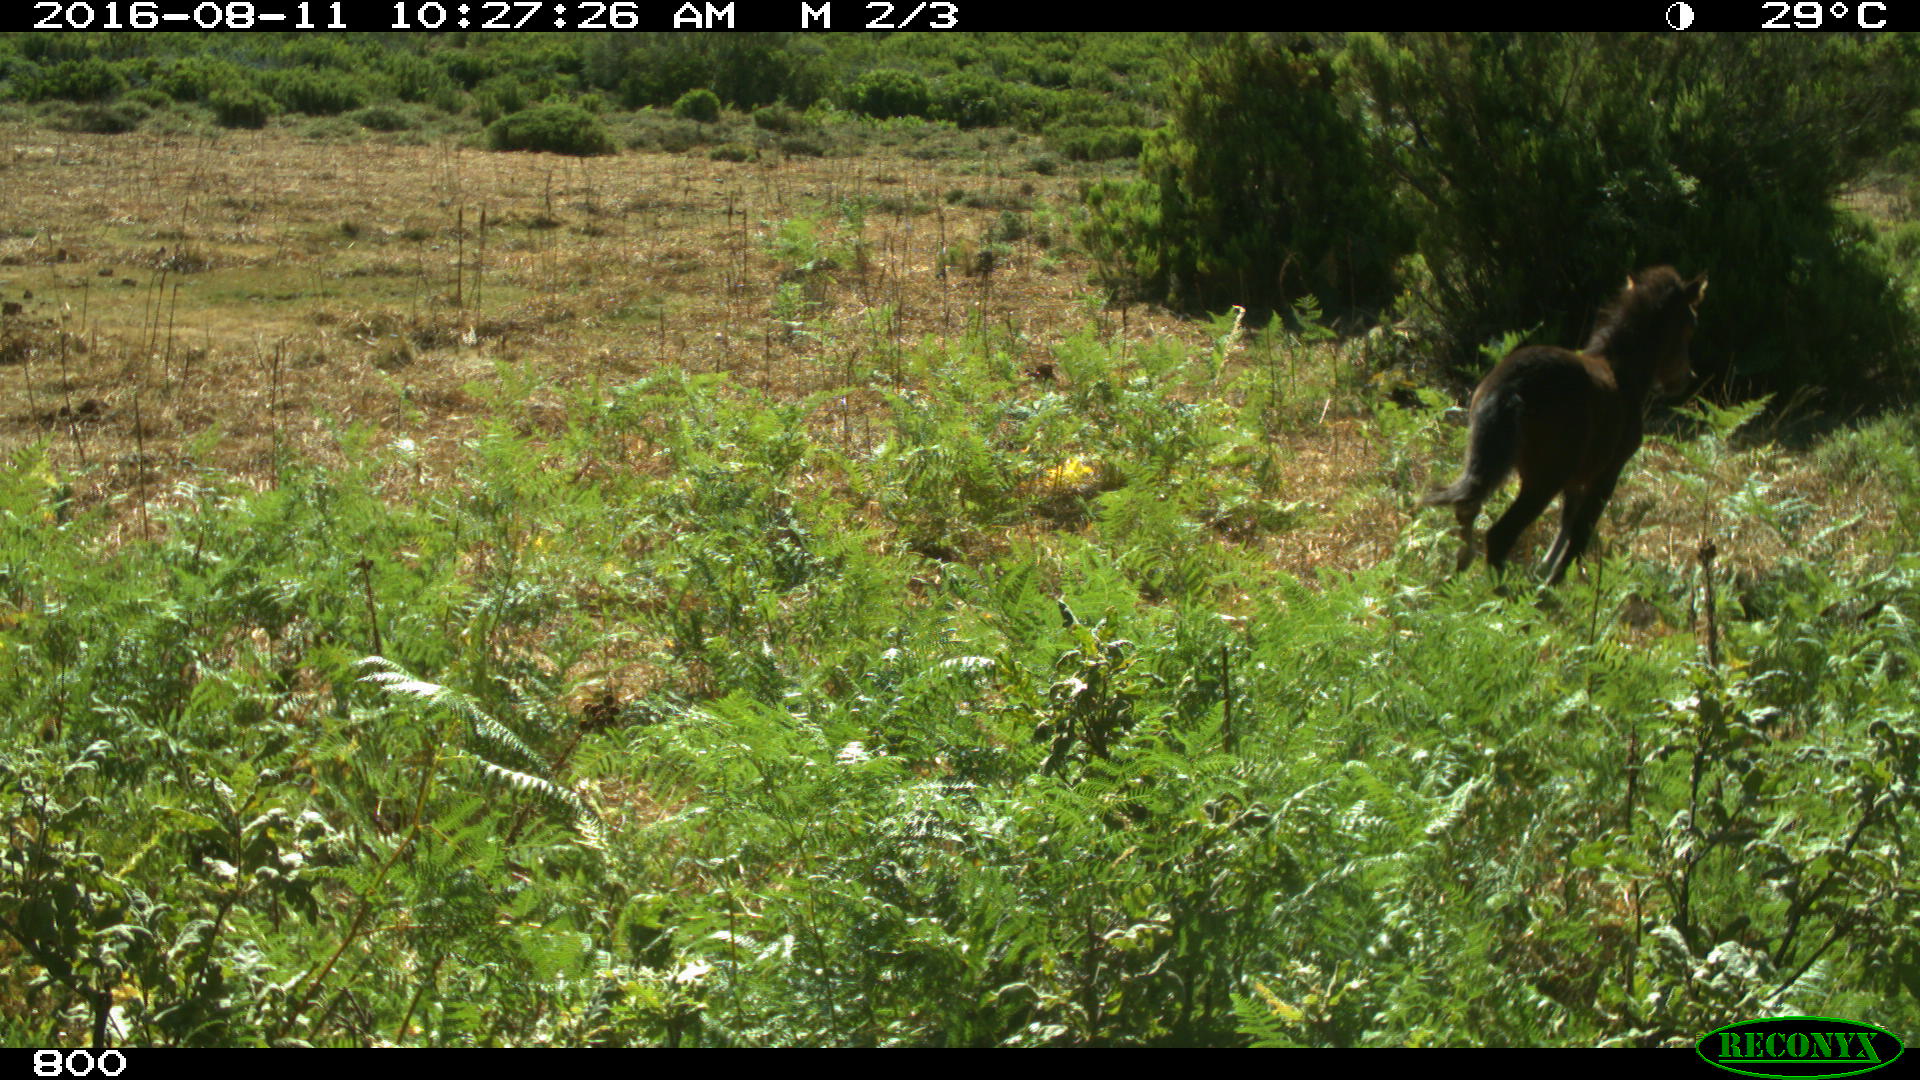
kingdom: Animalia
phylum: Chordata
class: Mammalia
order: Perissodactyla
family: Equidae
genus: Equus
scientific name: Equus caballus
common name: Horse
